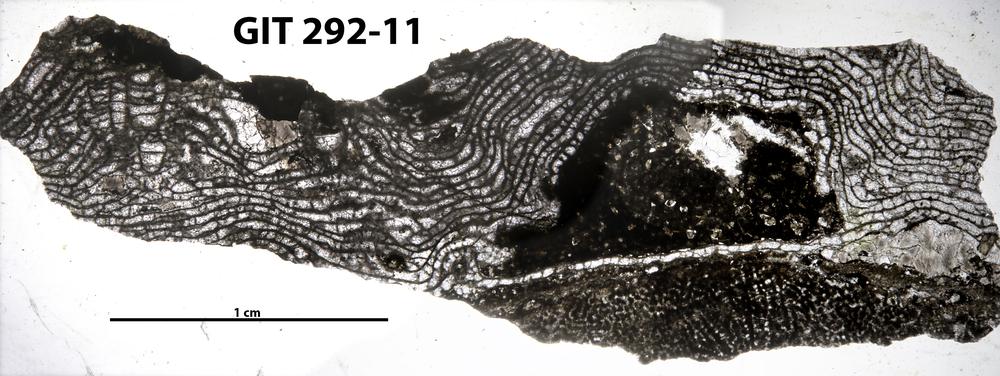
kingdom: Animalia
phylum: Porifera
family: Stromatoporellidae
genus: Simplexodictyon
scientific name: Simplexodictyon
